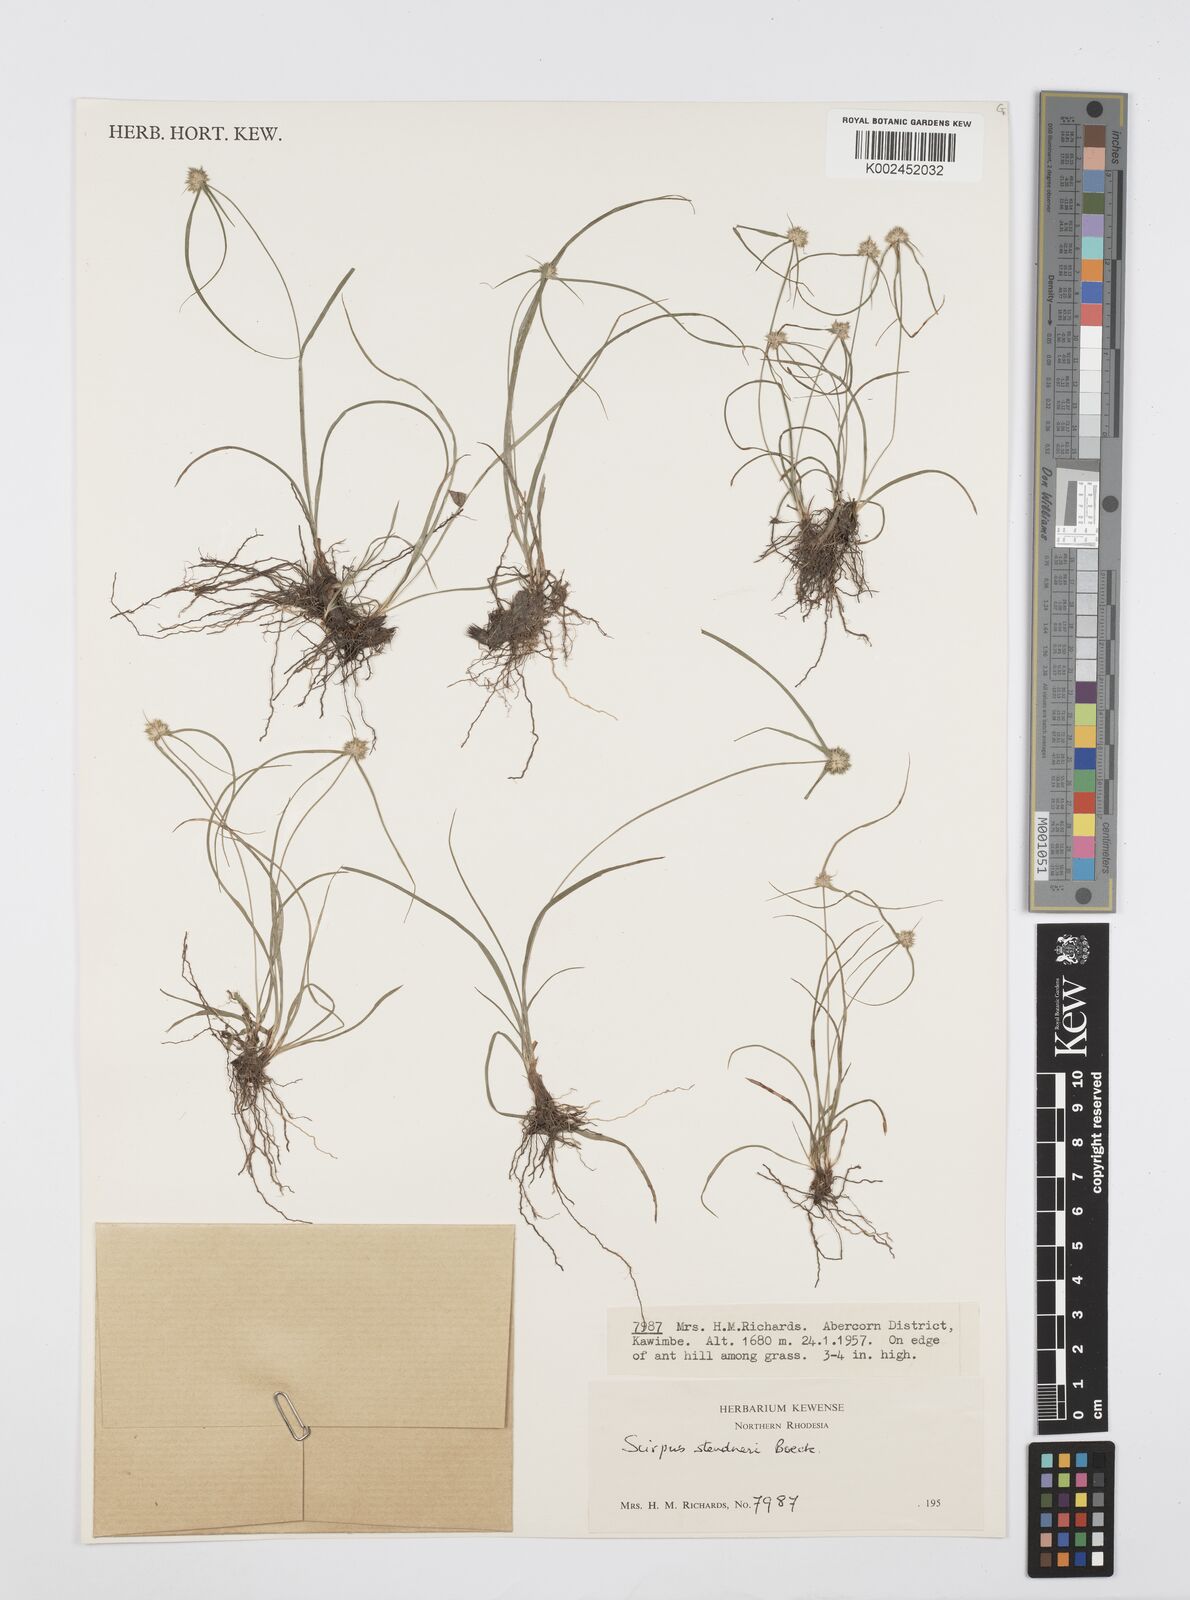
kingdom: Plantae
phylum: Tracheophyta
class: Liliopsida
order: Poales
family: Cyperaceae
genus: Cyperus
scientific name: Cyperus bulbosus
